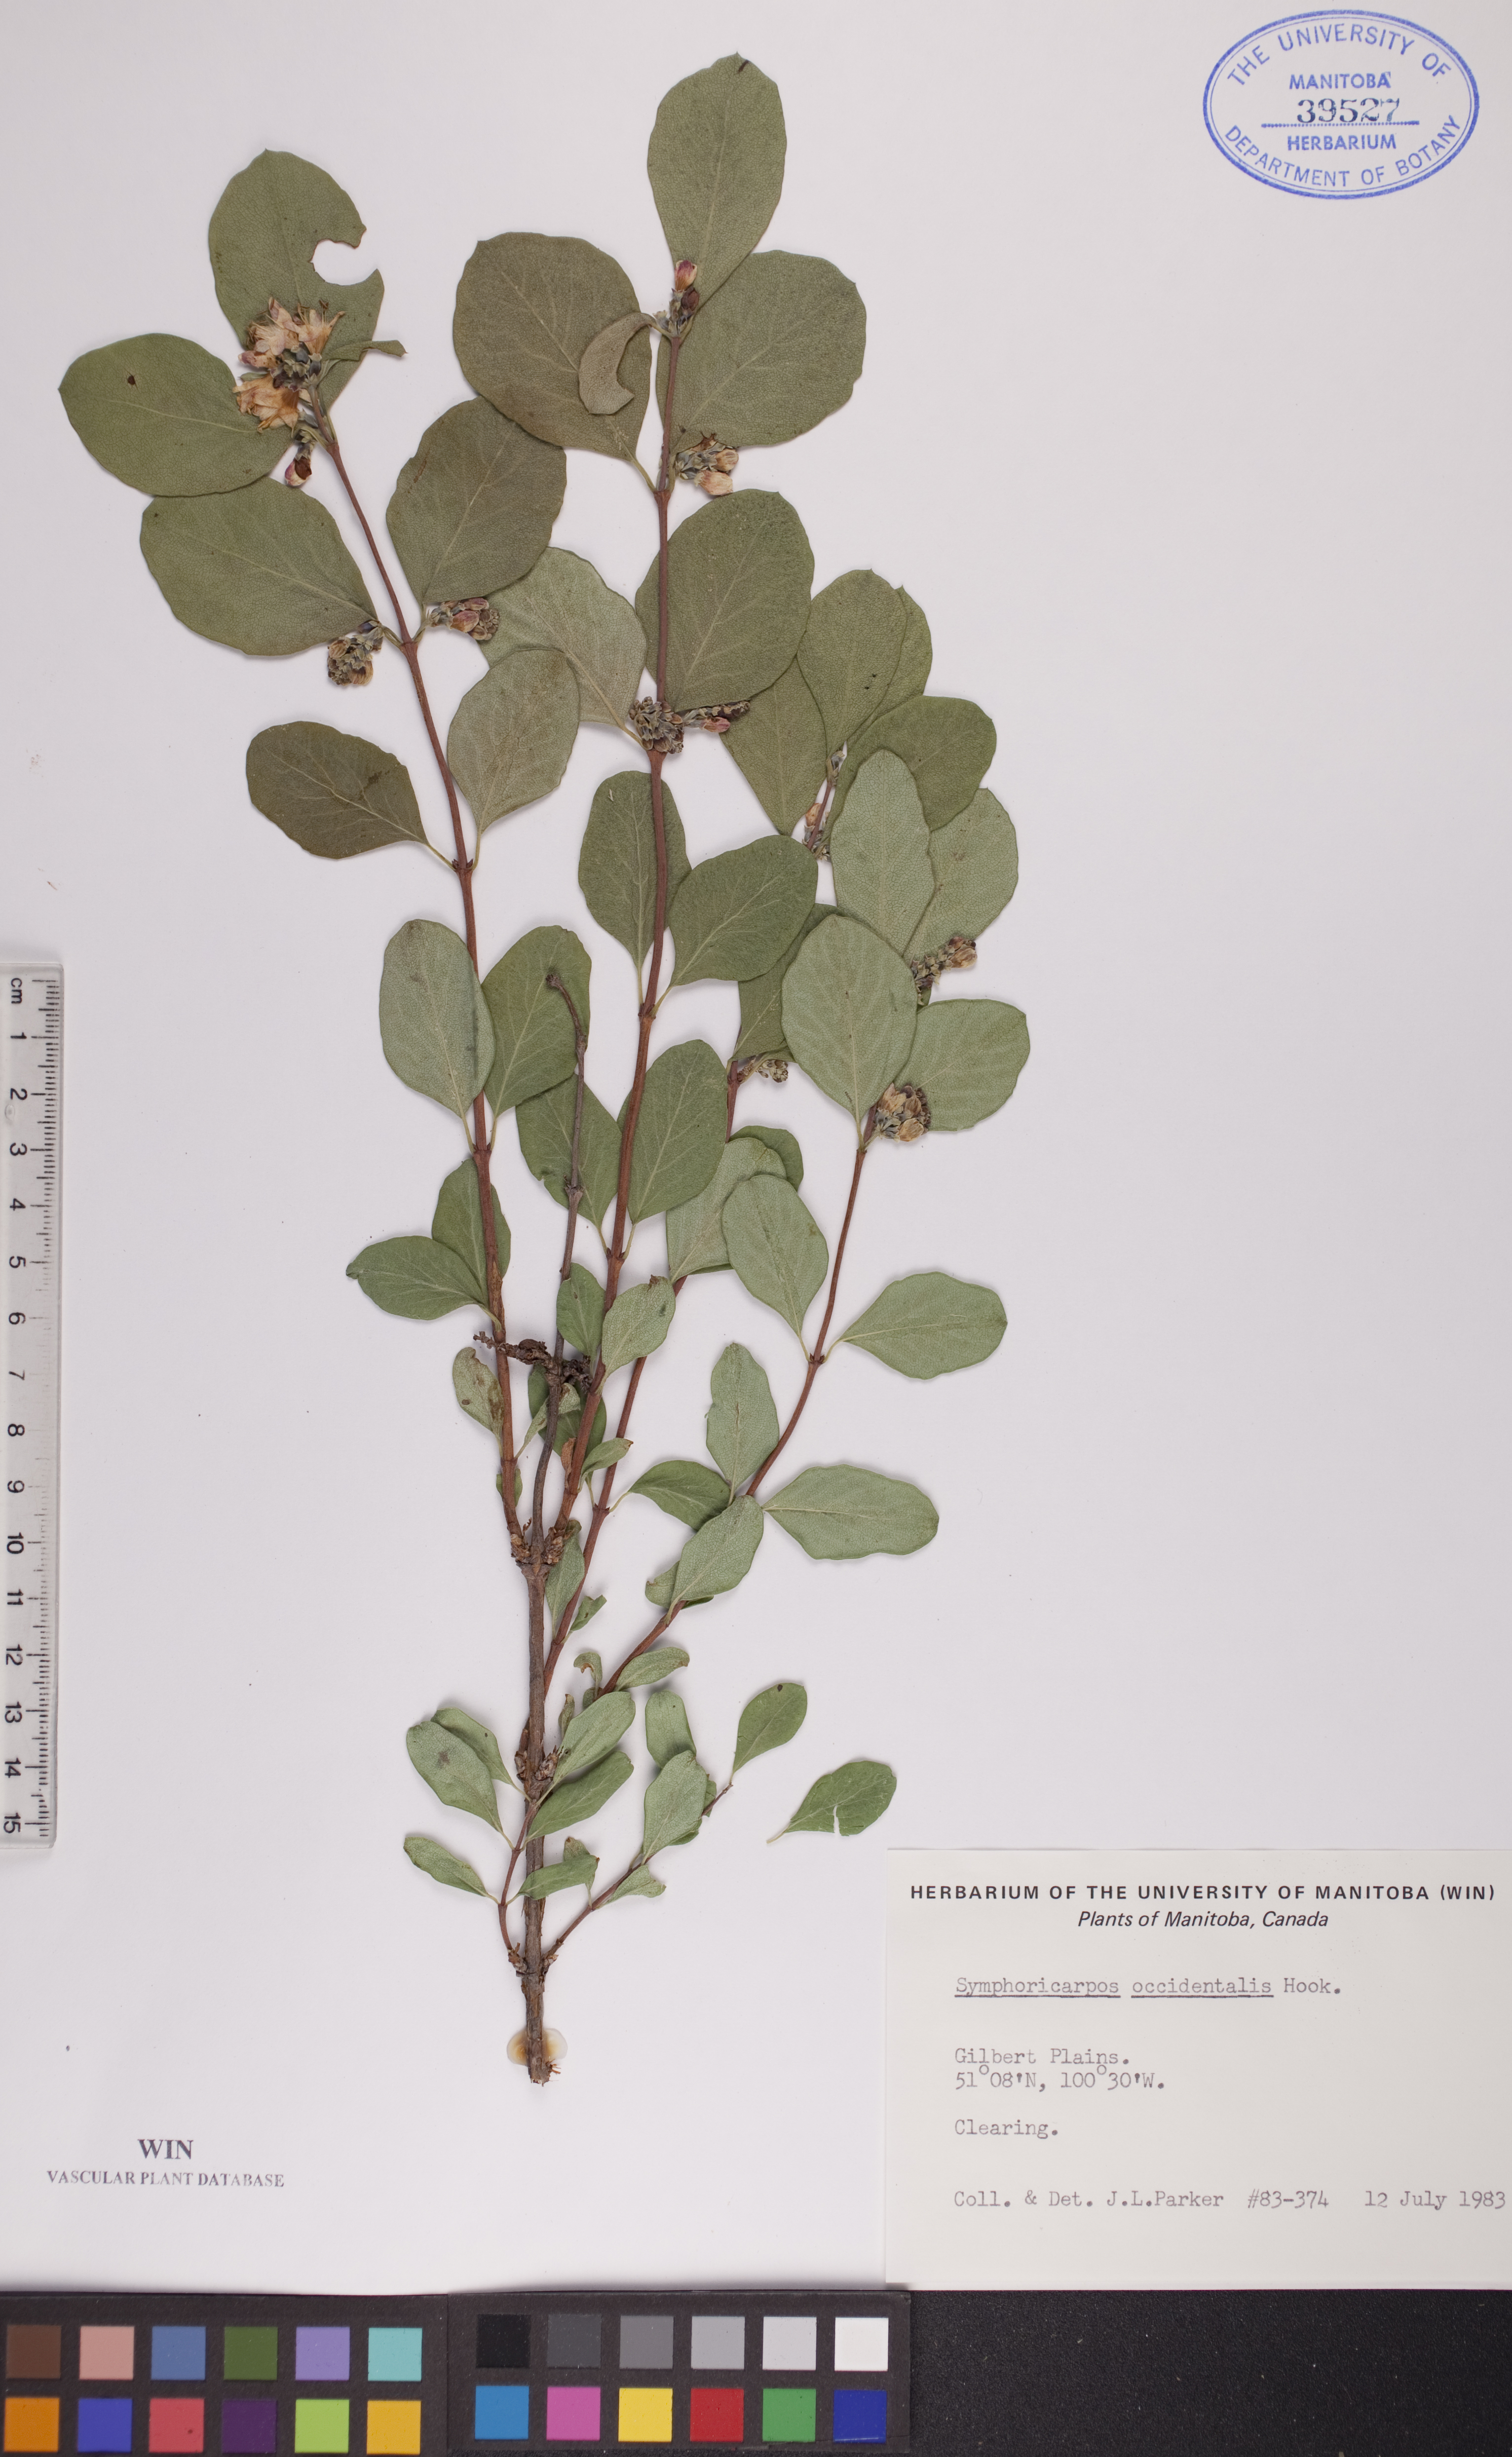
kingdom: Plantae
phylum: Tracheophyta
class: Magnoliopsida
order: Dipsacales
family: Caprifoliaceae
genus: Symphoricarpos
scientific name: Symphoricarpos occidentalis
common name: Wolfberry
